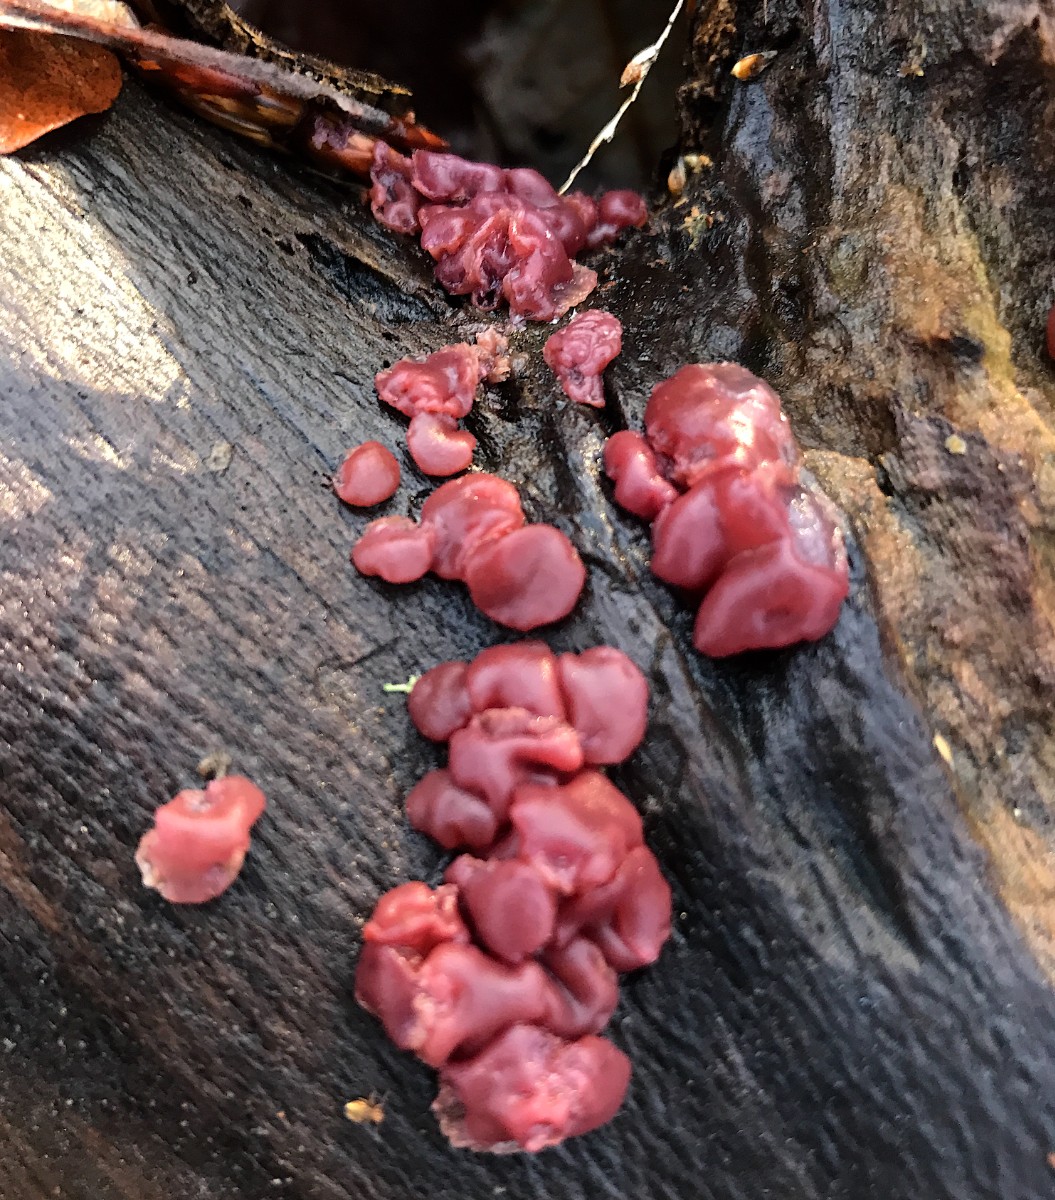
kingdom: Fungi
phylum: Ascomycota
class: Leotiomycetes
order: Helotiales
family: Gelatinodiscaceae
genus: Ascocoryne
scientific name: Ascocoryne cylichnium
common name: stor sejskive
